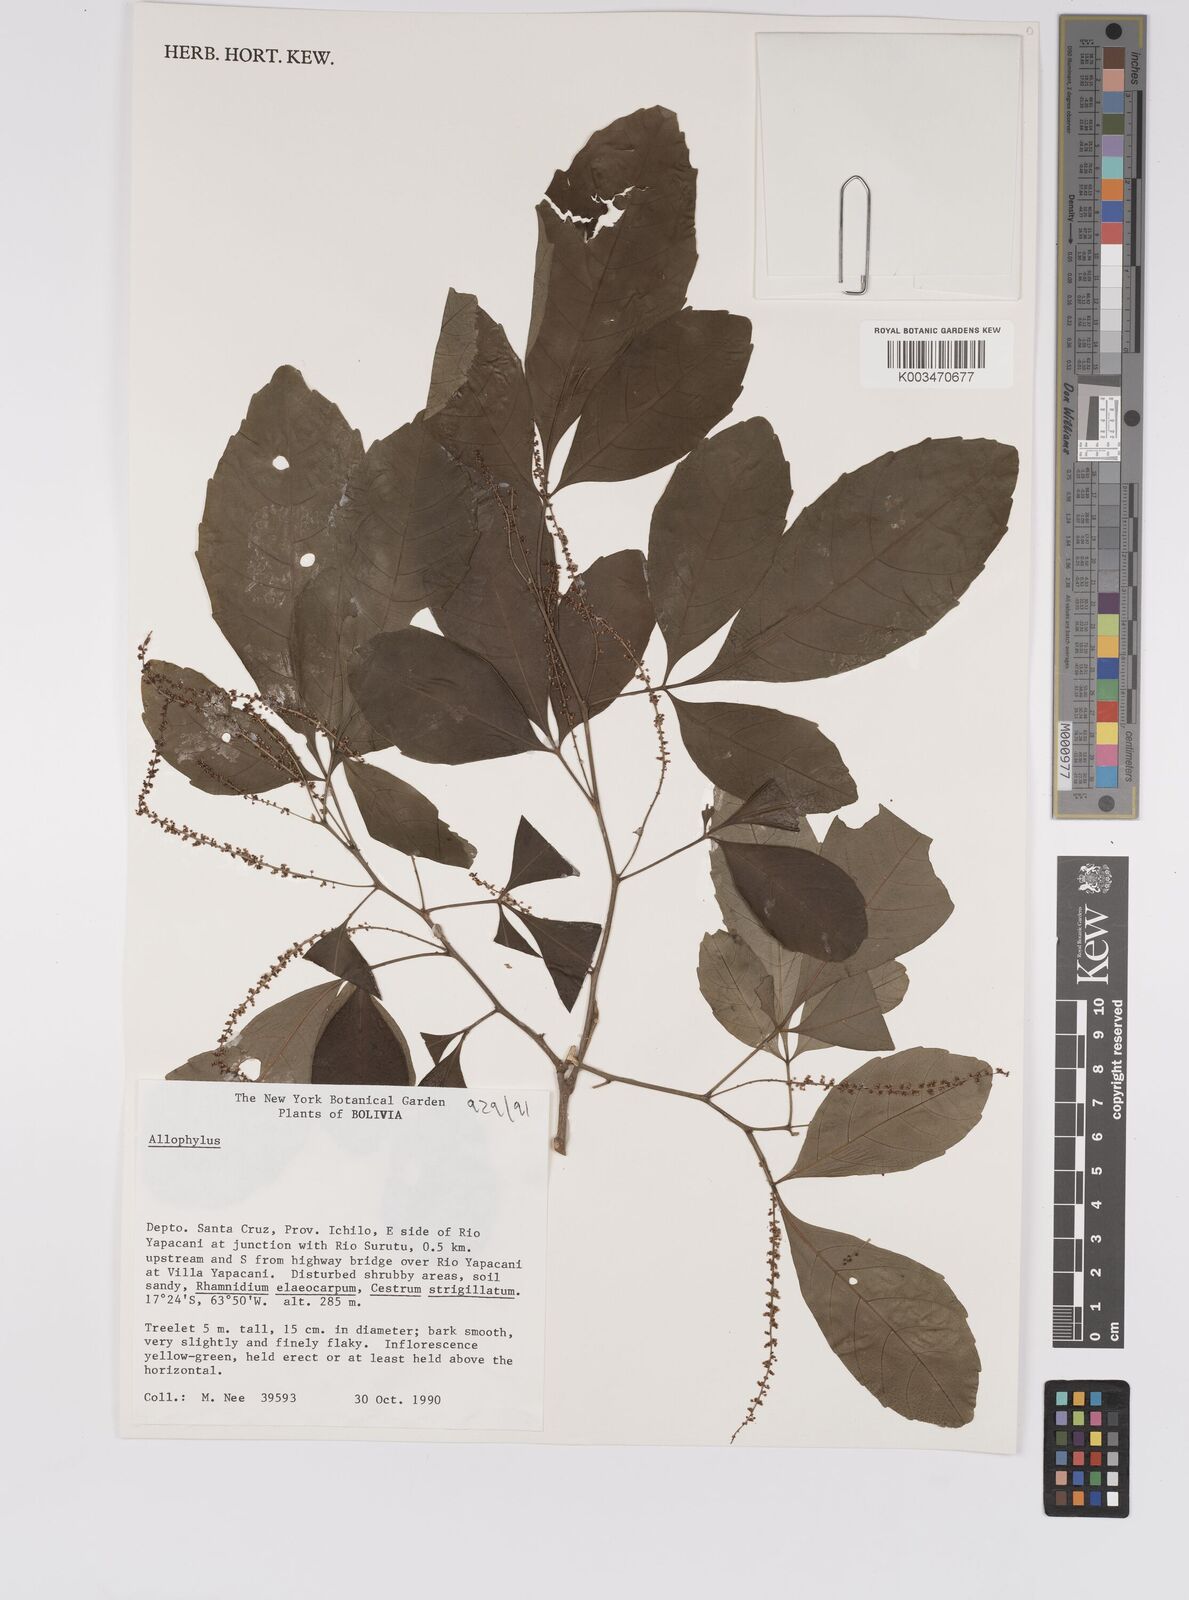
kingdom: Plantae
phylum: Tracheophyta
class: Magnoliopsida
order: Sapindales
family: Sapindaceae
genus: Allophylus
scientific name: Allophylus
